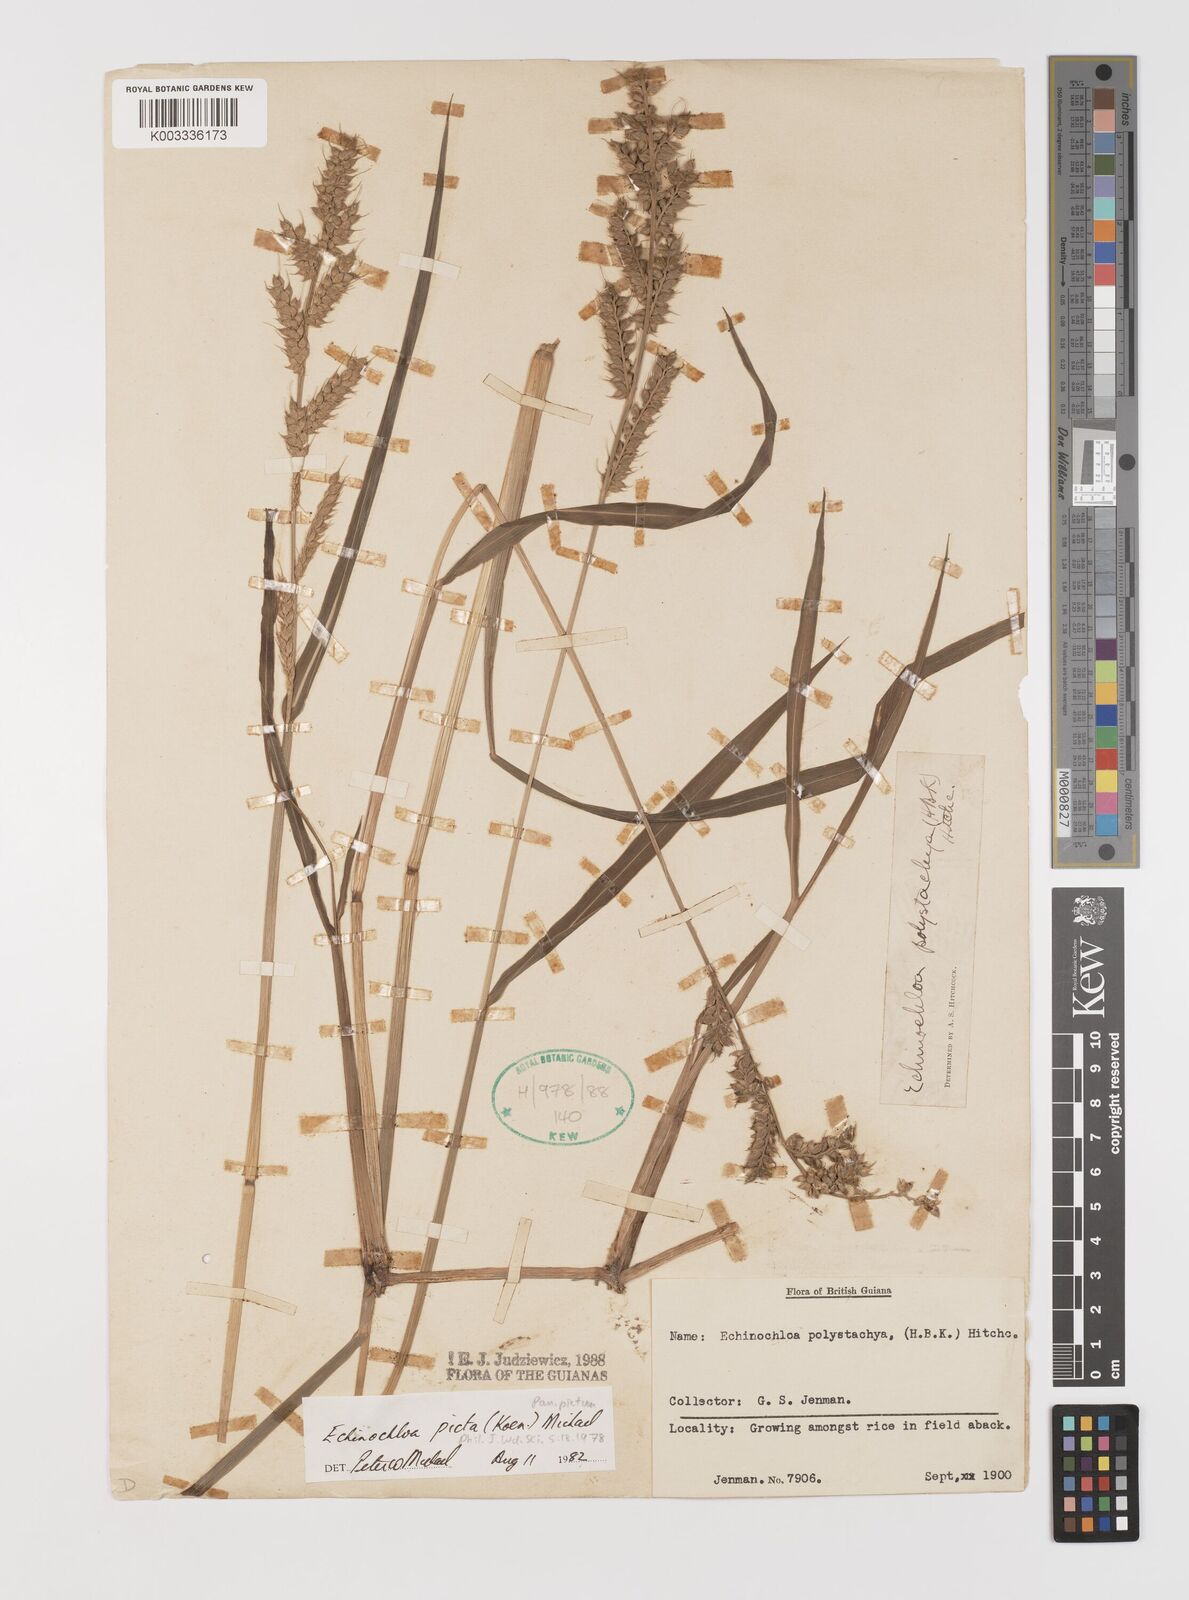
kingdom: Plantae
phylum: Tracheophyta
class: Liliopsida
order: Poales
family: Poaceae
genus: Pseudechinolaena
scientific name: Pseudechinolaena polystachya
